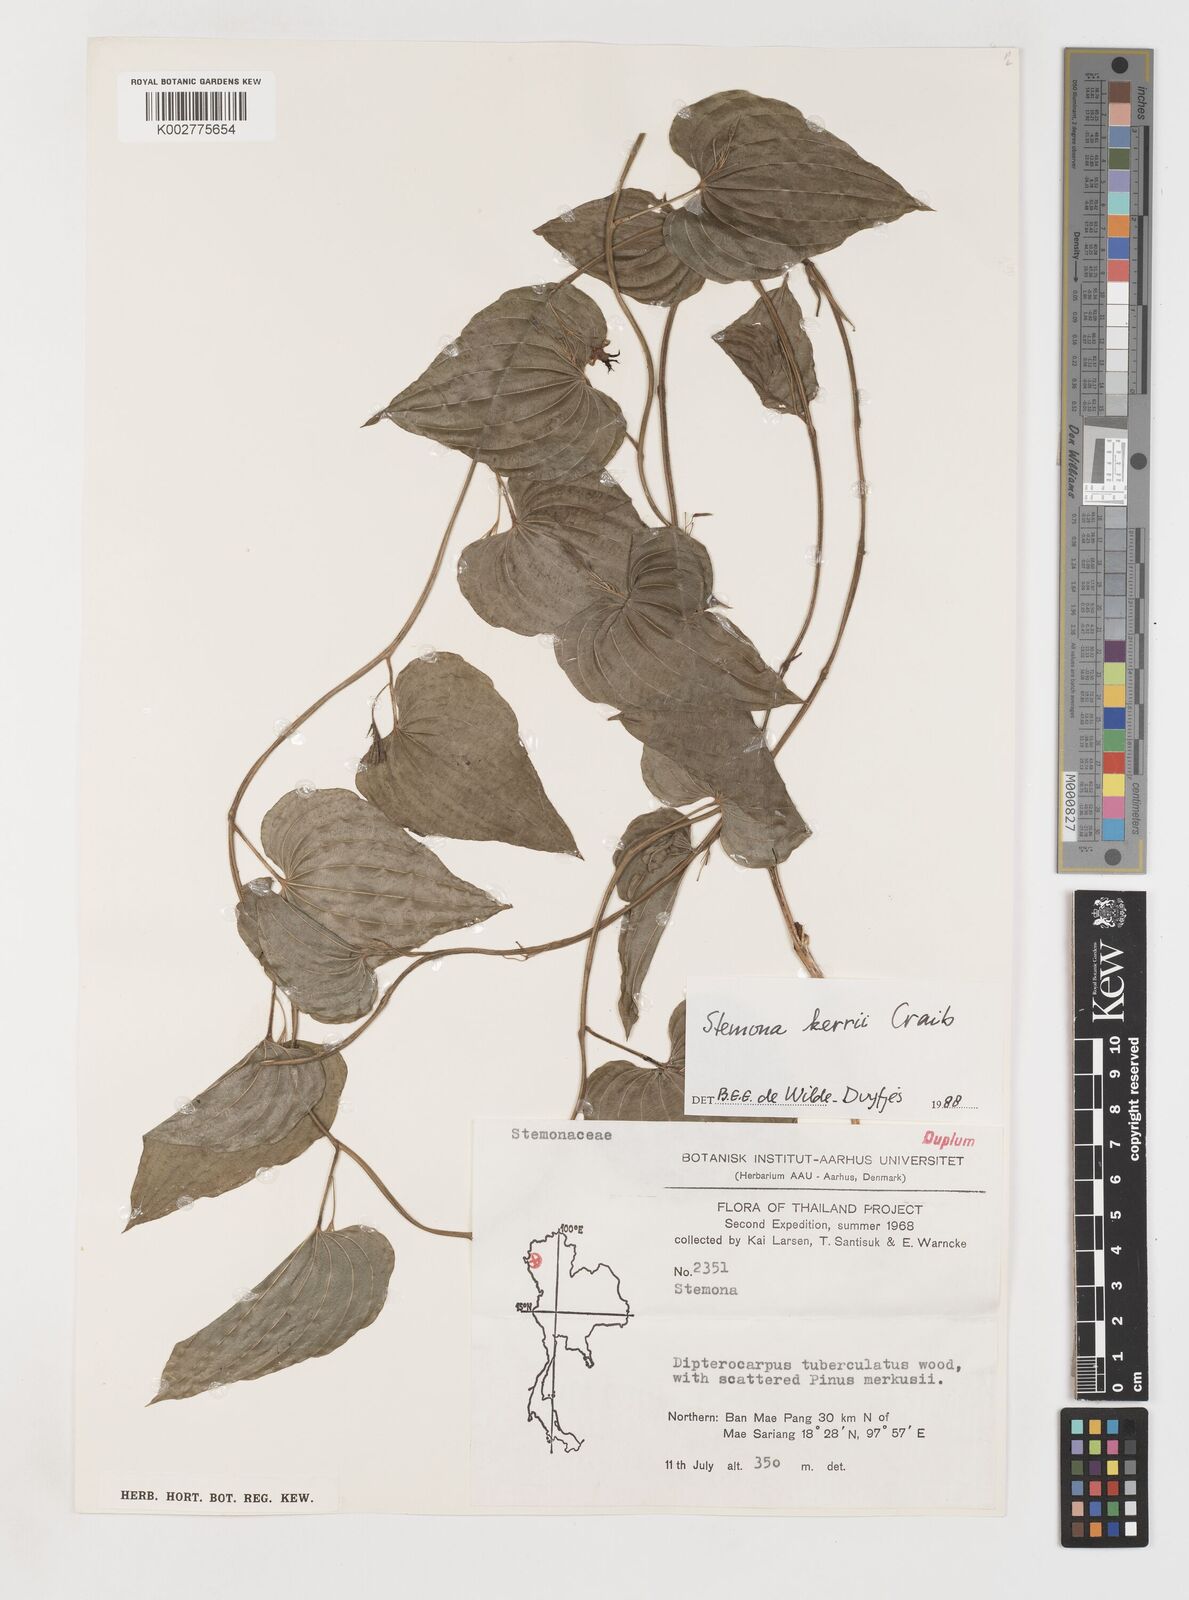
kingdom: Plantae
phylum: Tracheophyta
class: Liliopsida
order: Pandanales
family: Stemonaceae
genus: Stemona
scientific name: Stemona kerrii
